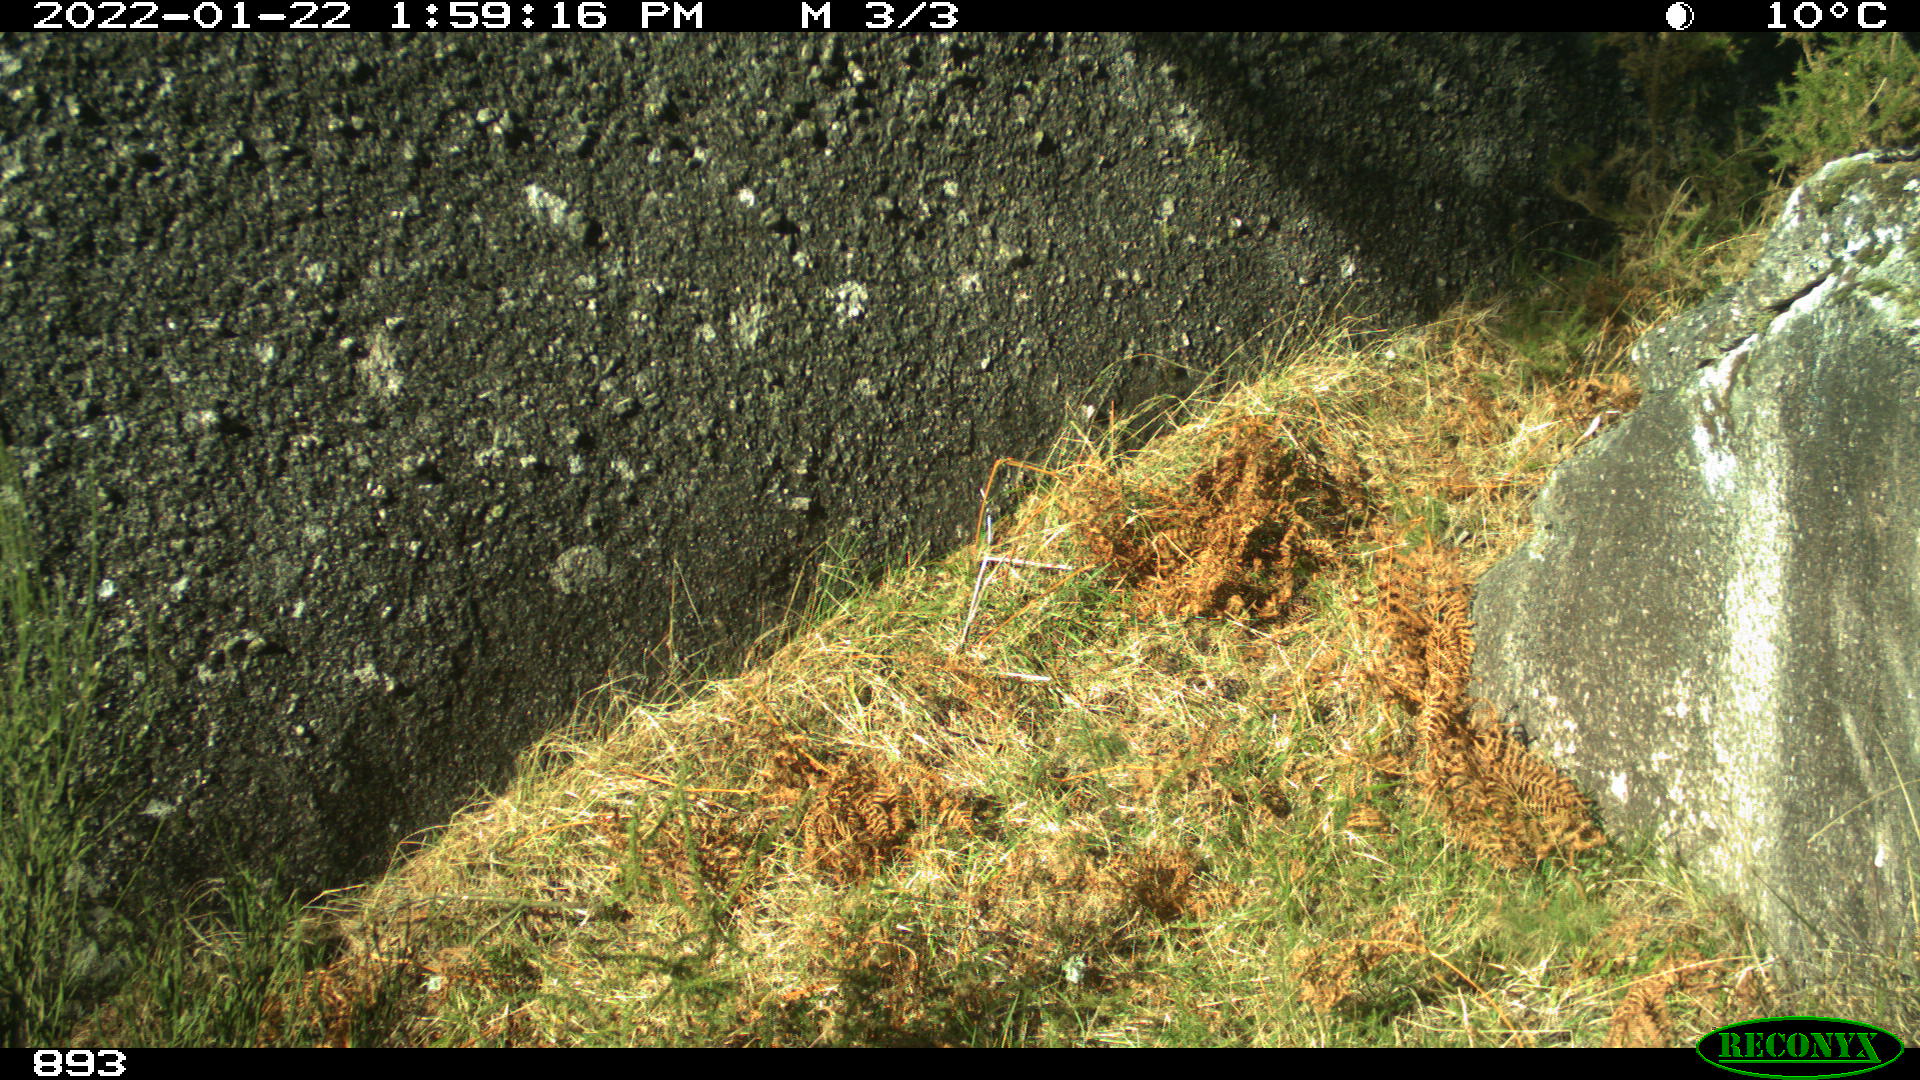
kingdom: Animalia
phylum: Chordata
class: Mammalia
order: Perissodactyla
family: Equidae
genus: Equus
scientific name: Equus caballus
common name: Horse
